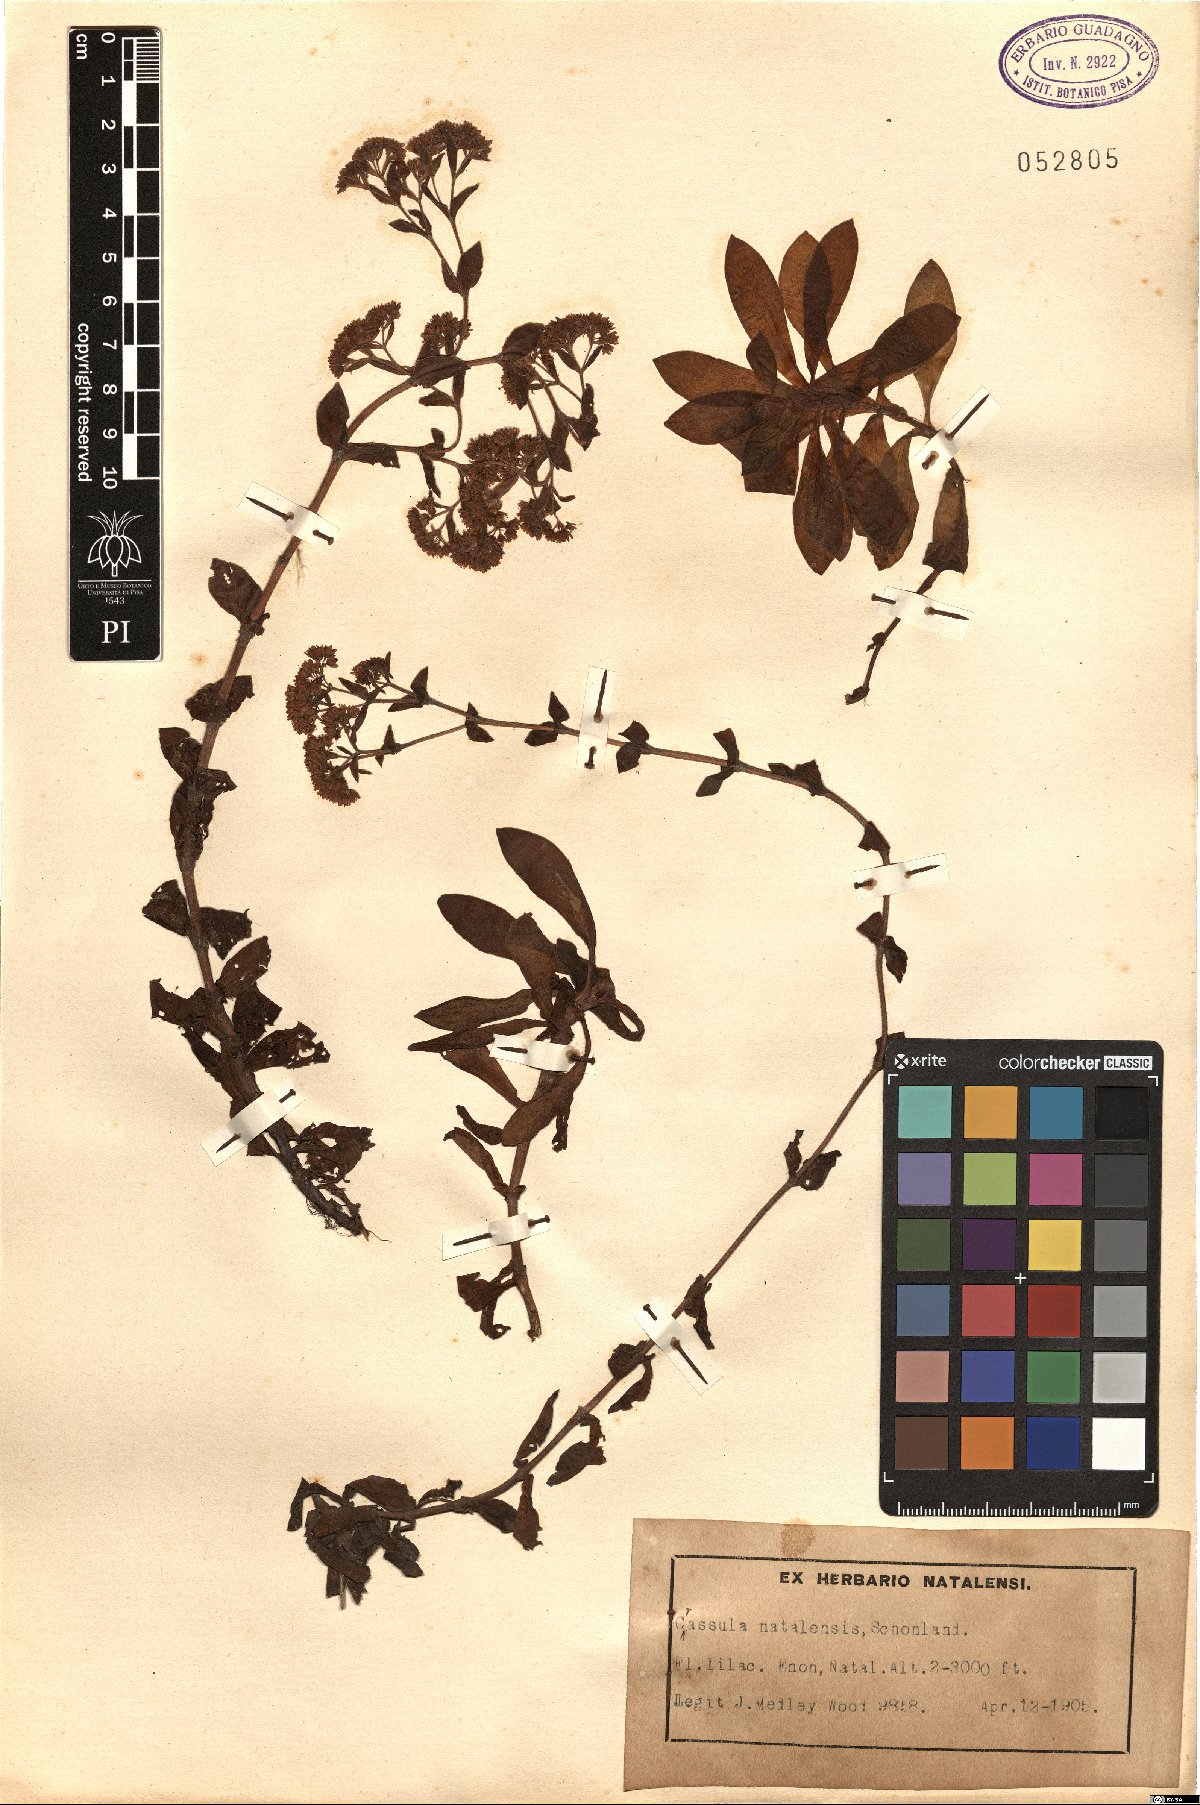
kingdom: Plantae
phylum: Tracheophyta
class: Magnoliopsida
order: Saxifragales
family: Crassulaceae
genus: Crassula
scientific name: Crassula natalensis
